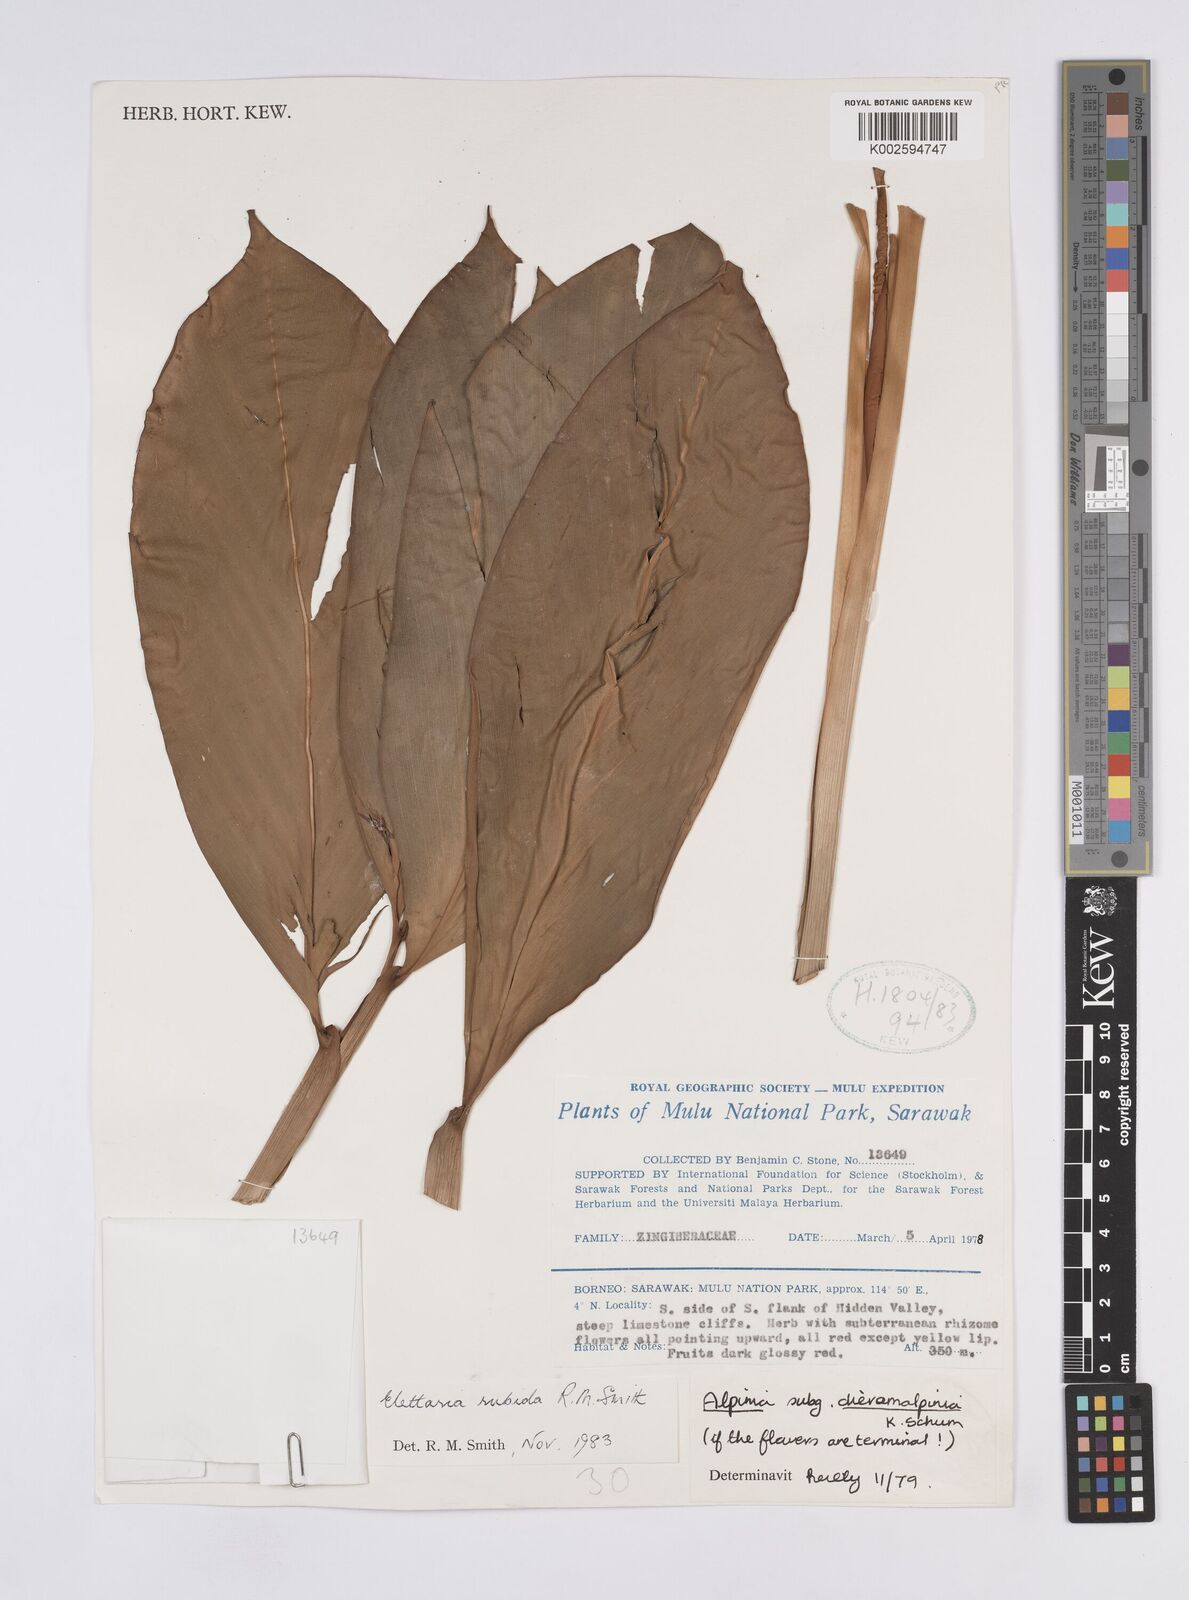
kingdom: Plantae
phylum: Tracheophyta
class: Liliopsida
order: Zingiberales
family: Zingiberaceae
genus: Sulettaria
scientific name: Sulettaria rubida
